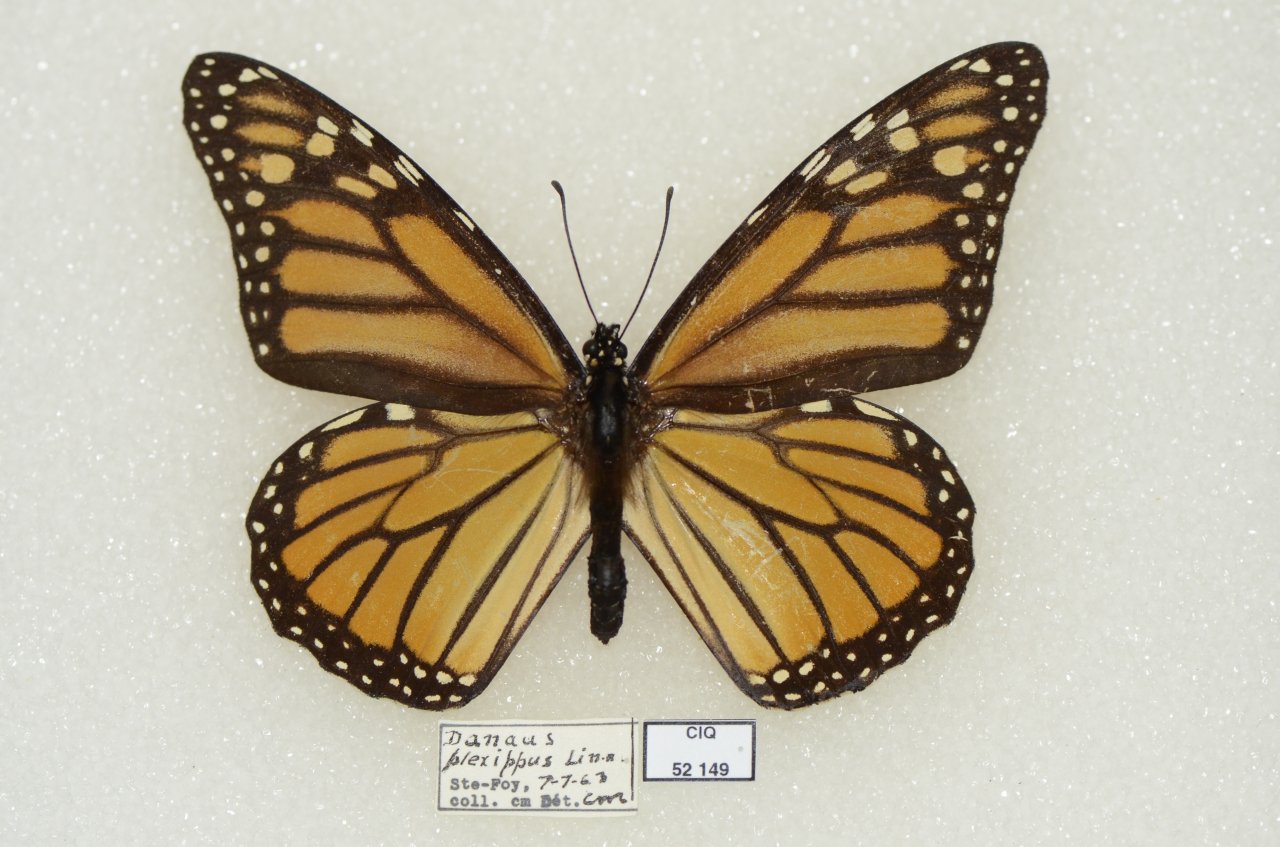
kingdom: Animalia
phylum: Arthropoda
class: Insecta
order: Lepidoptera
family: Nymphalidae
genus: Danaus
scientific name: Danaus plexippus
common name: Monarch
